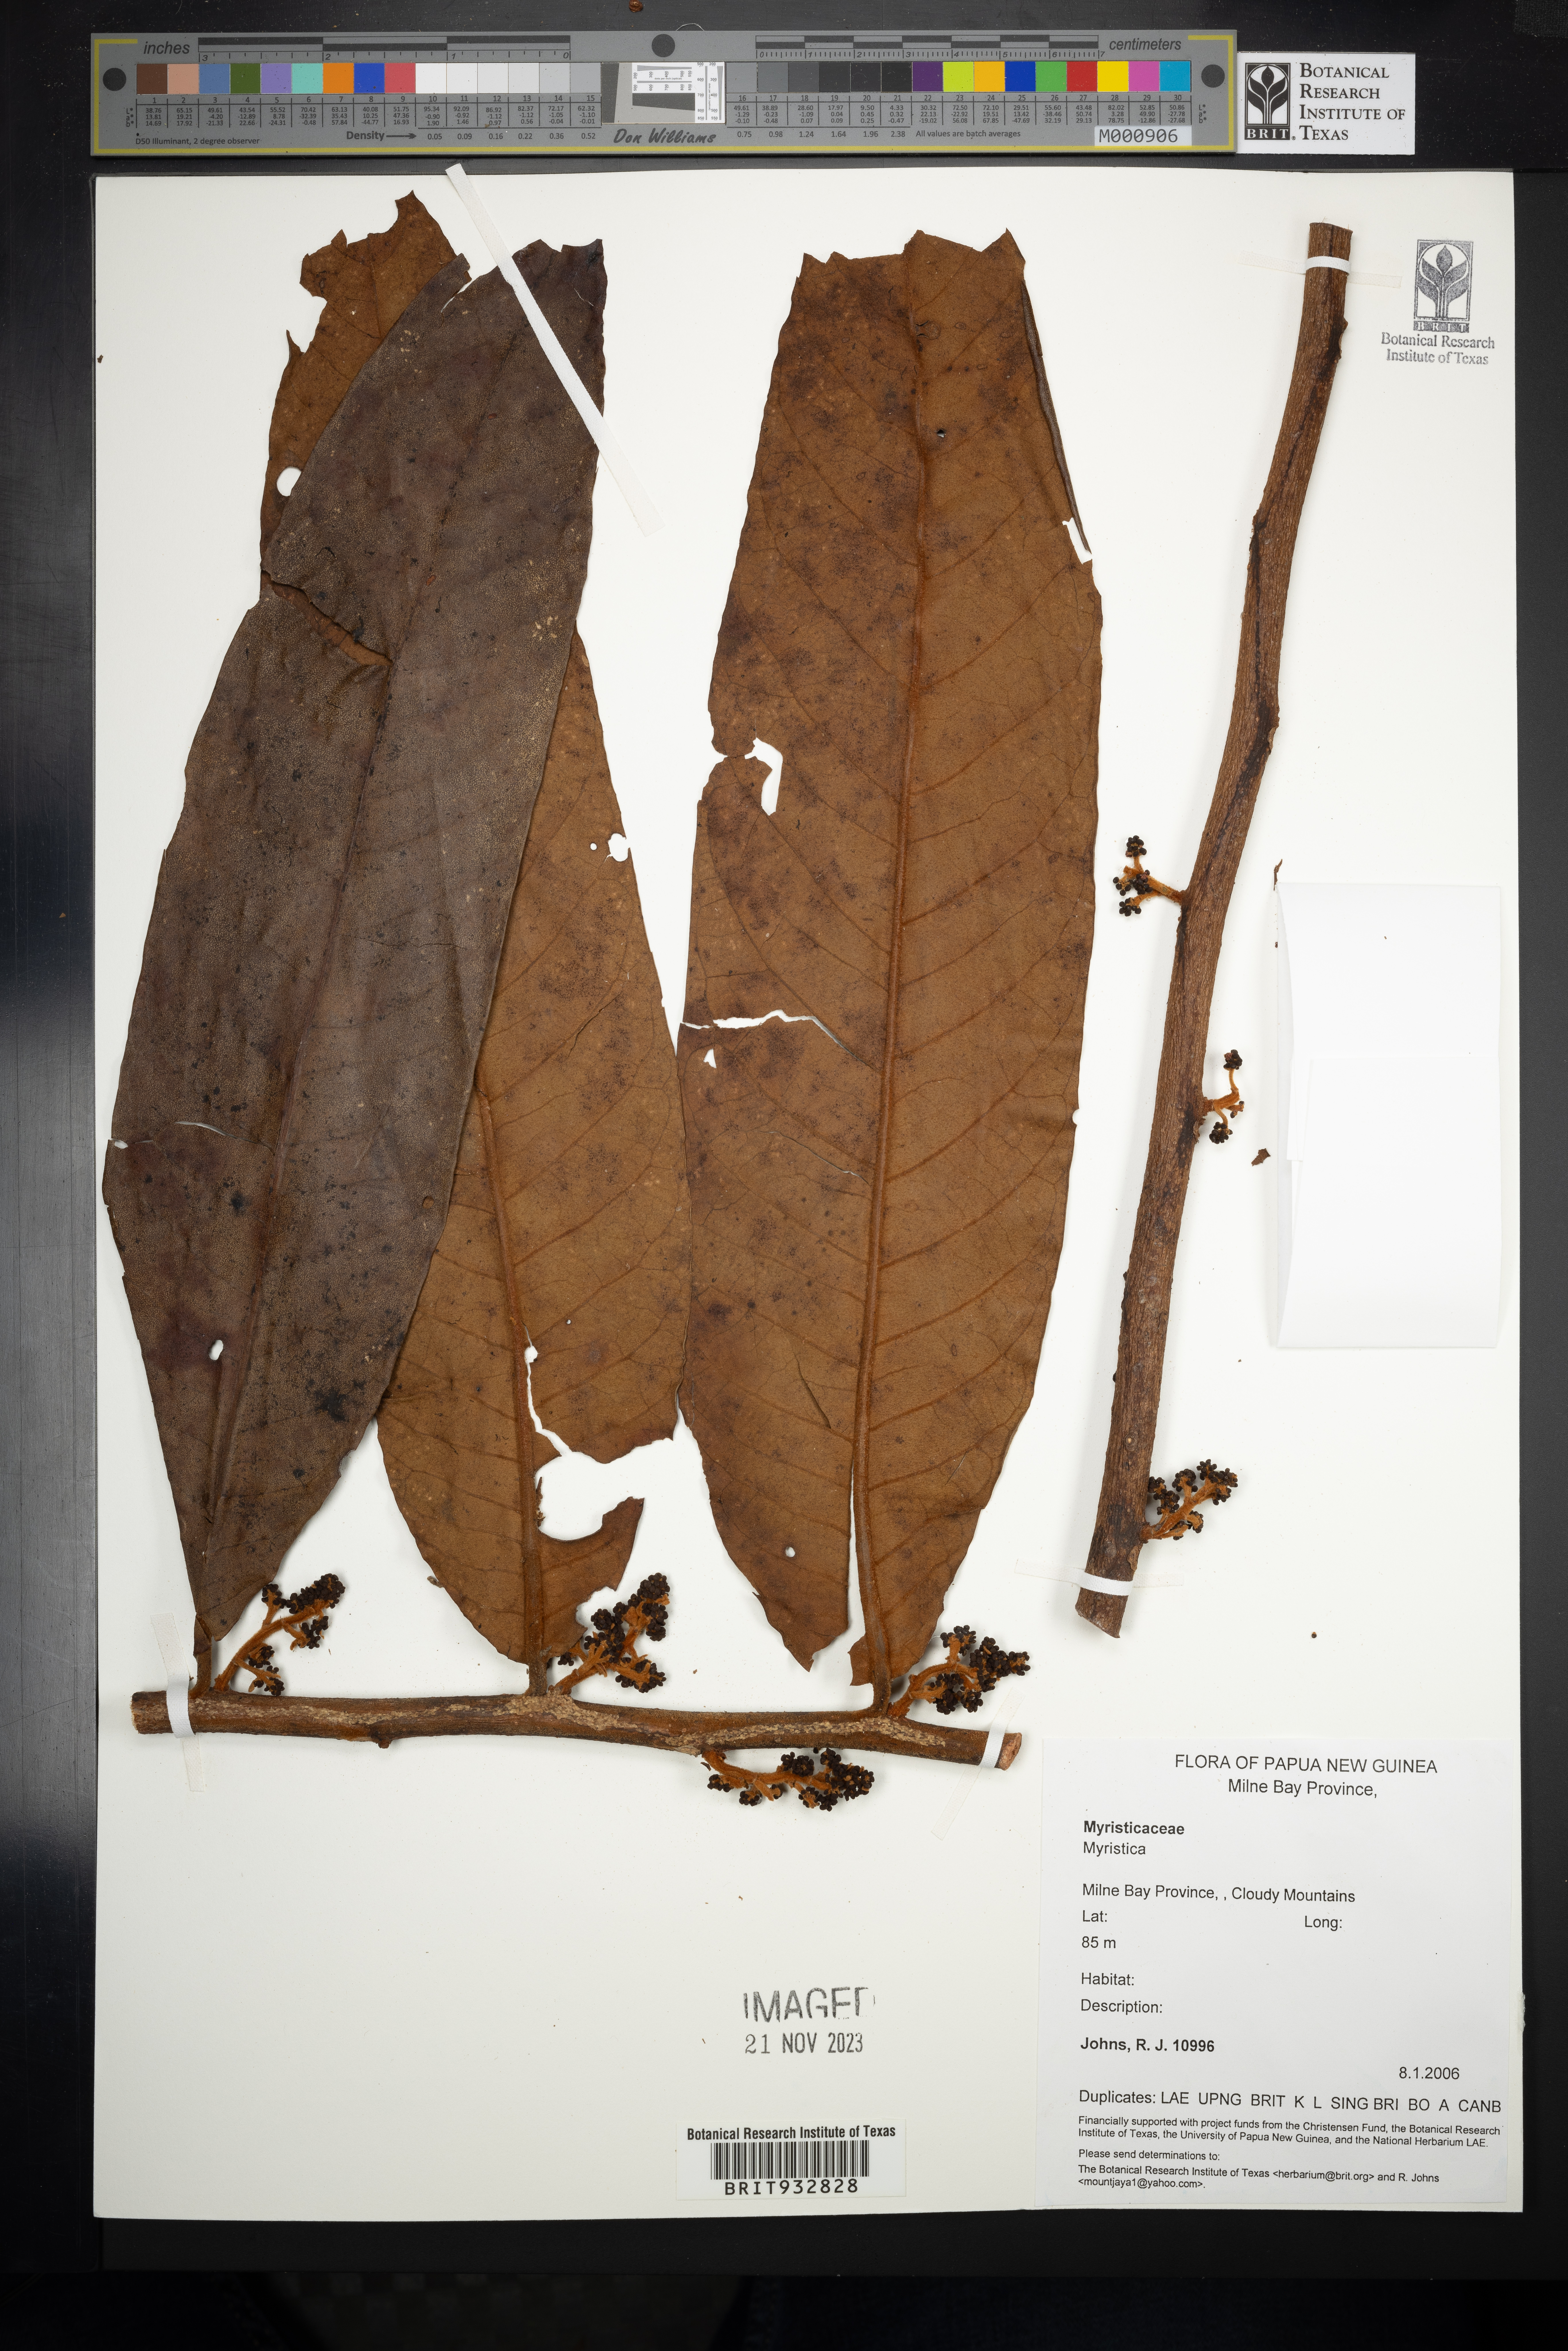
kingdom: Plantae
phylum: Tracheophyta
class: Magnoliopsida
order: Magnoliales
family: Myristicaceae
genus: Myristica
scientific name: Myristica
